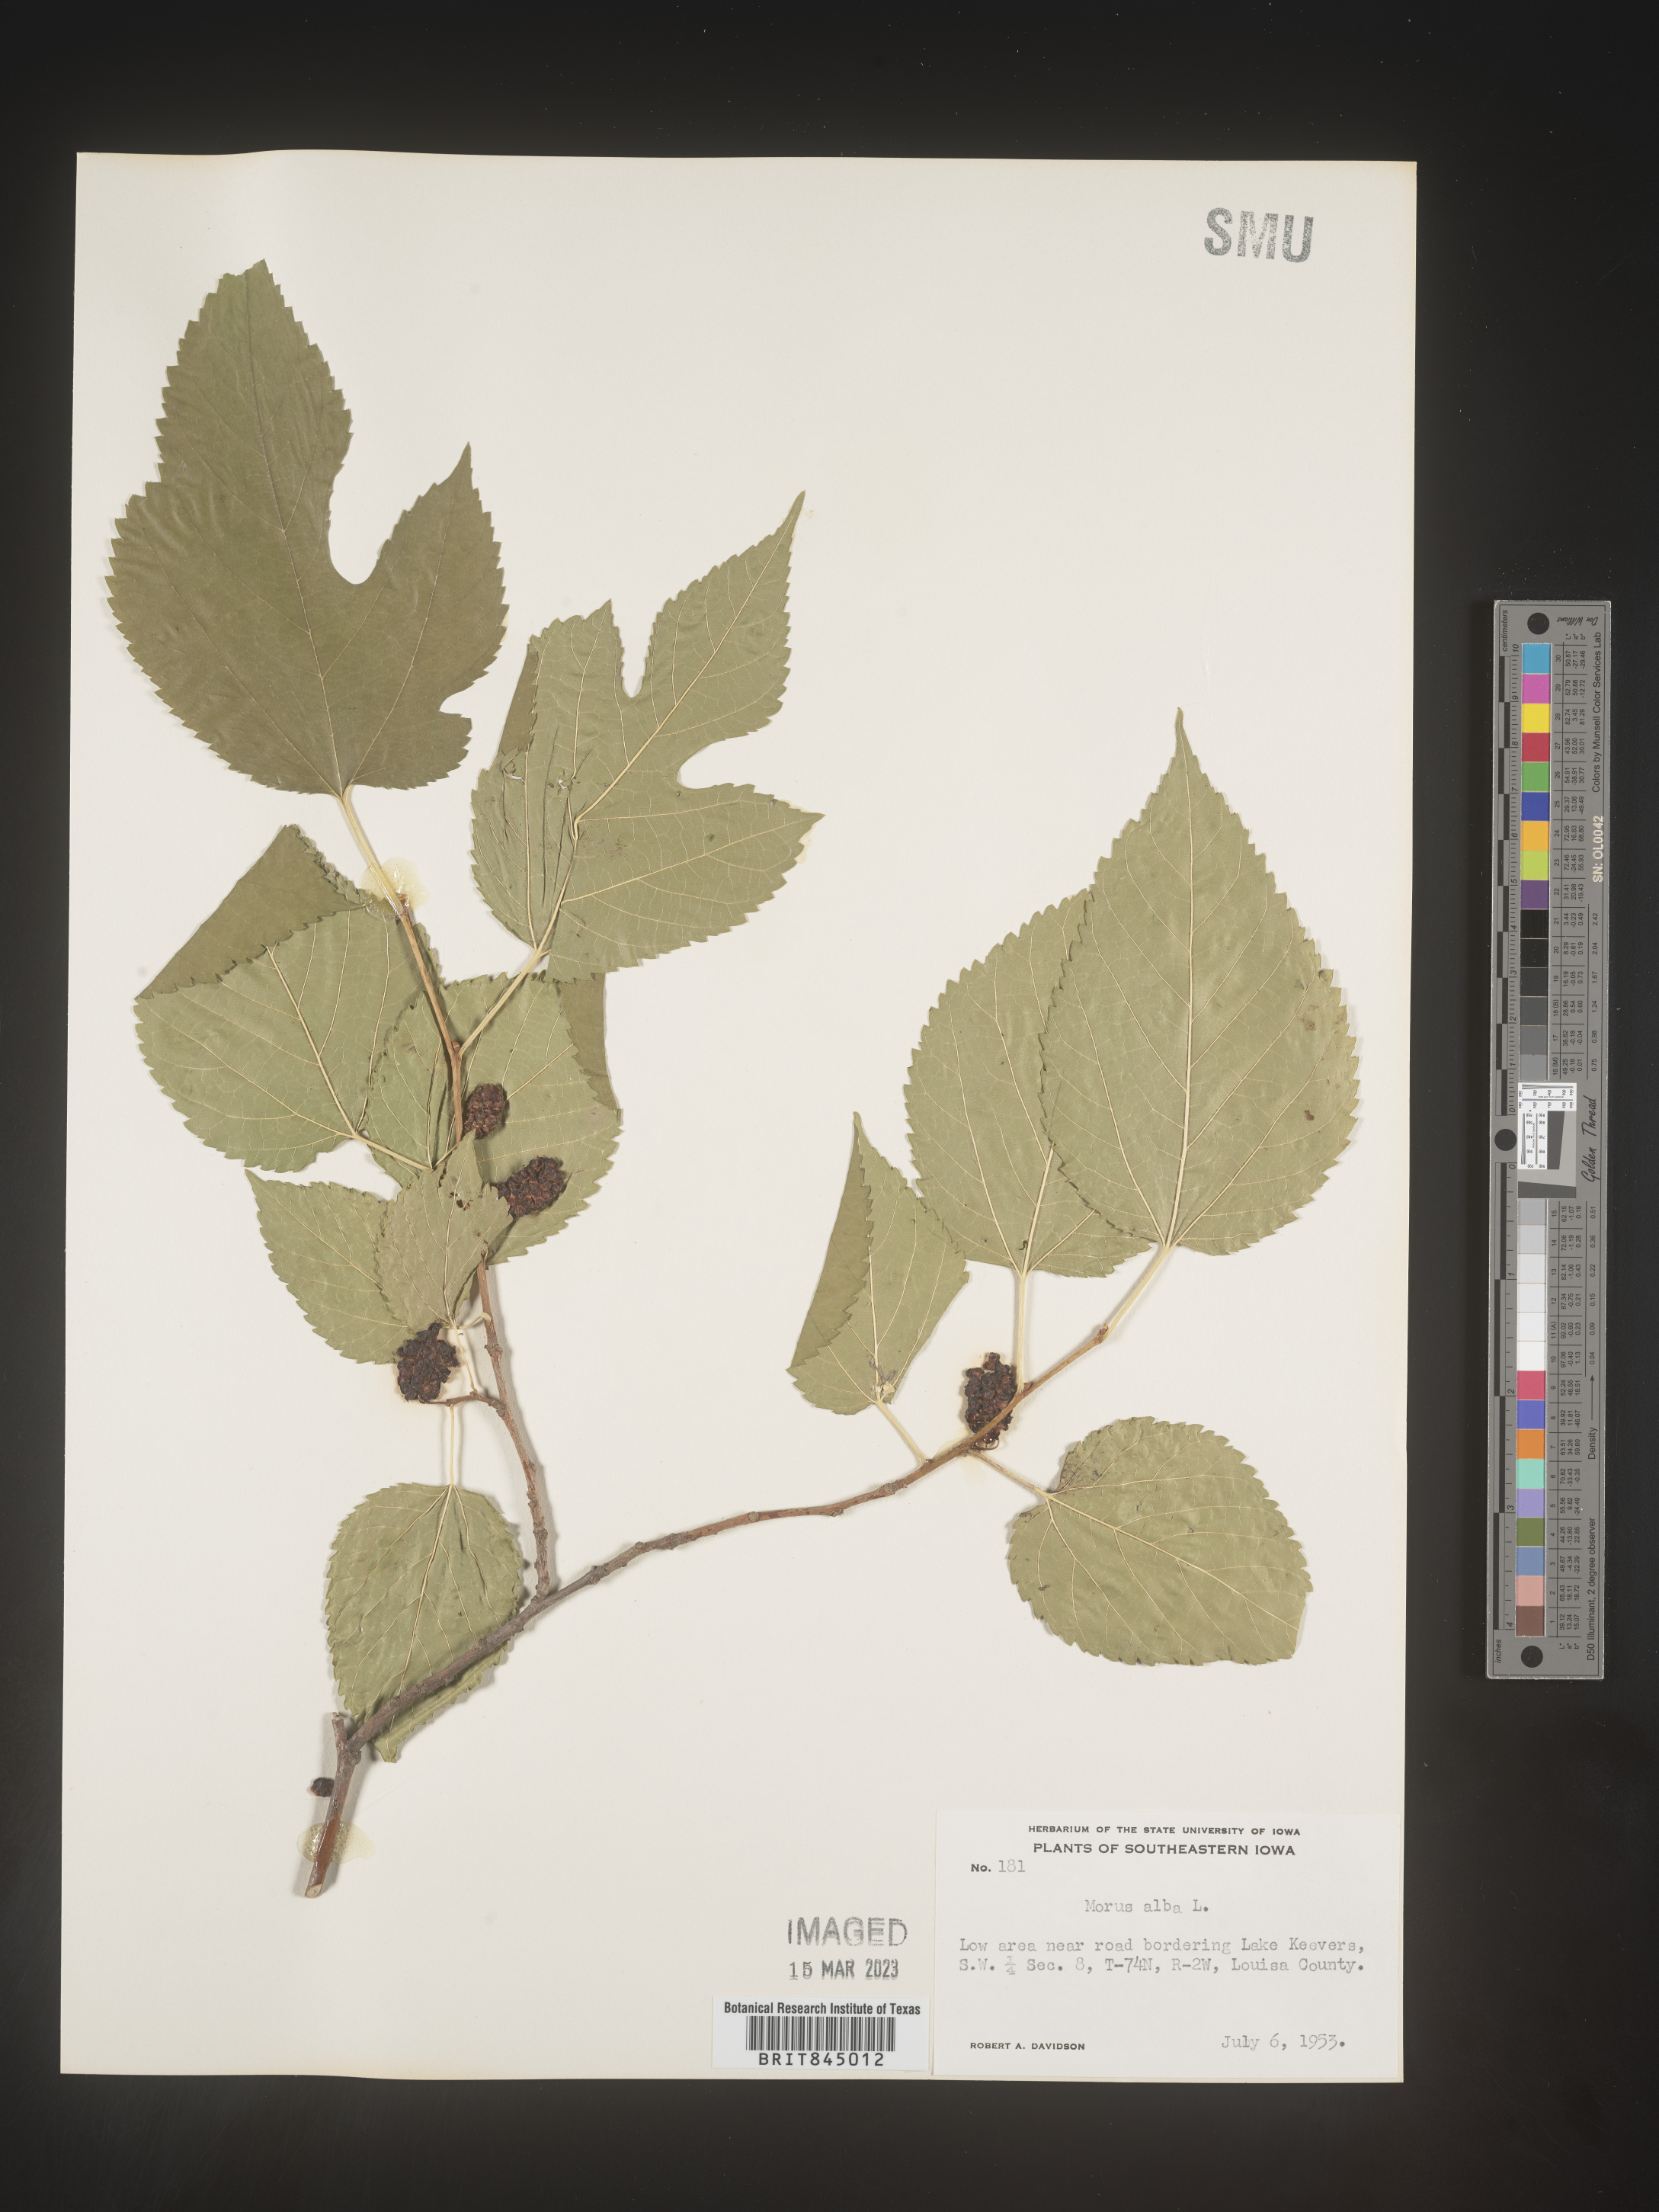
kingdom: Plantae
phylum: Tracheophyta
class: Magnoliopsida
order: Rosales
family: Moraceae
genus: Morus
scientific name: Morus alba
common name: White mulberry
